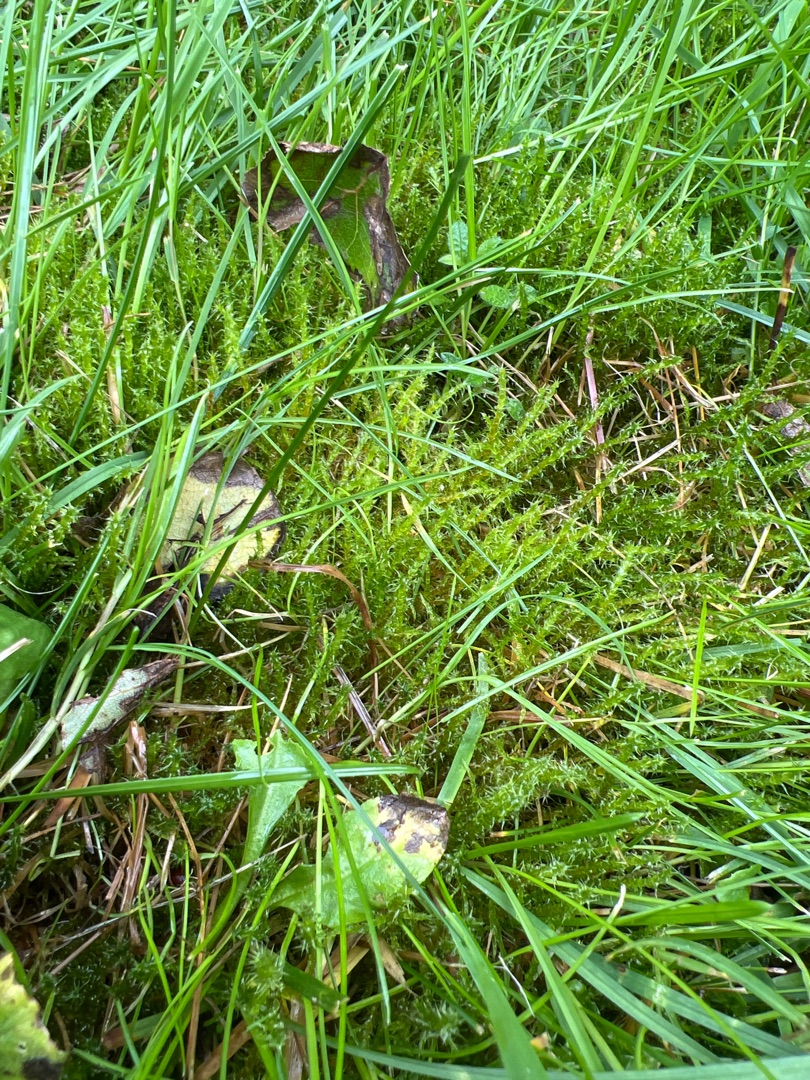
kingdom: Plantae
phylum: Bryophyta
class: Bryopsida
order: Hypnales
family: Hylocomiaceae
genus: Rhytidiadelphus
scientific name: Rhytidiadelphus squarrosus
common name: Plæne-kransemos
